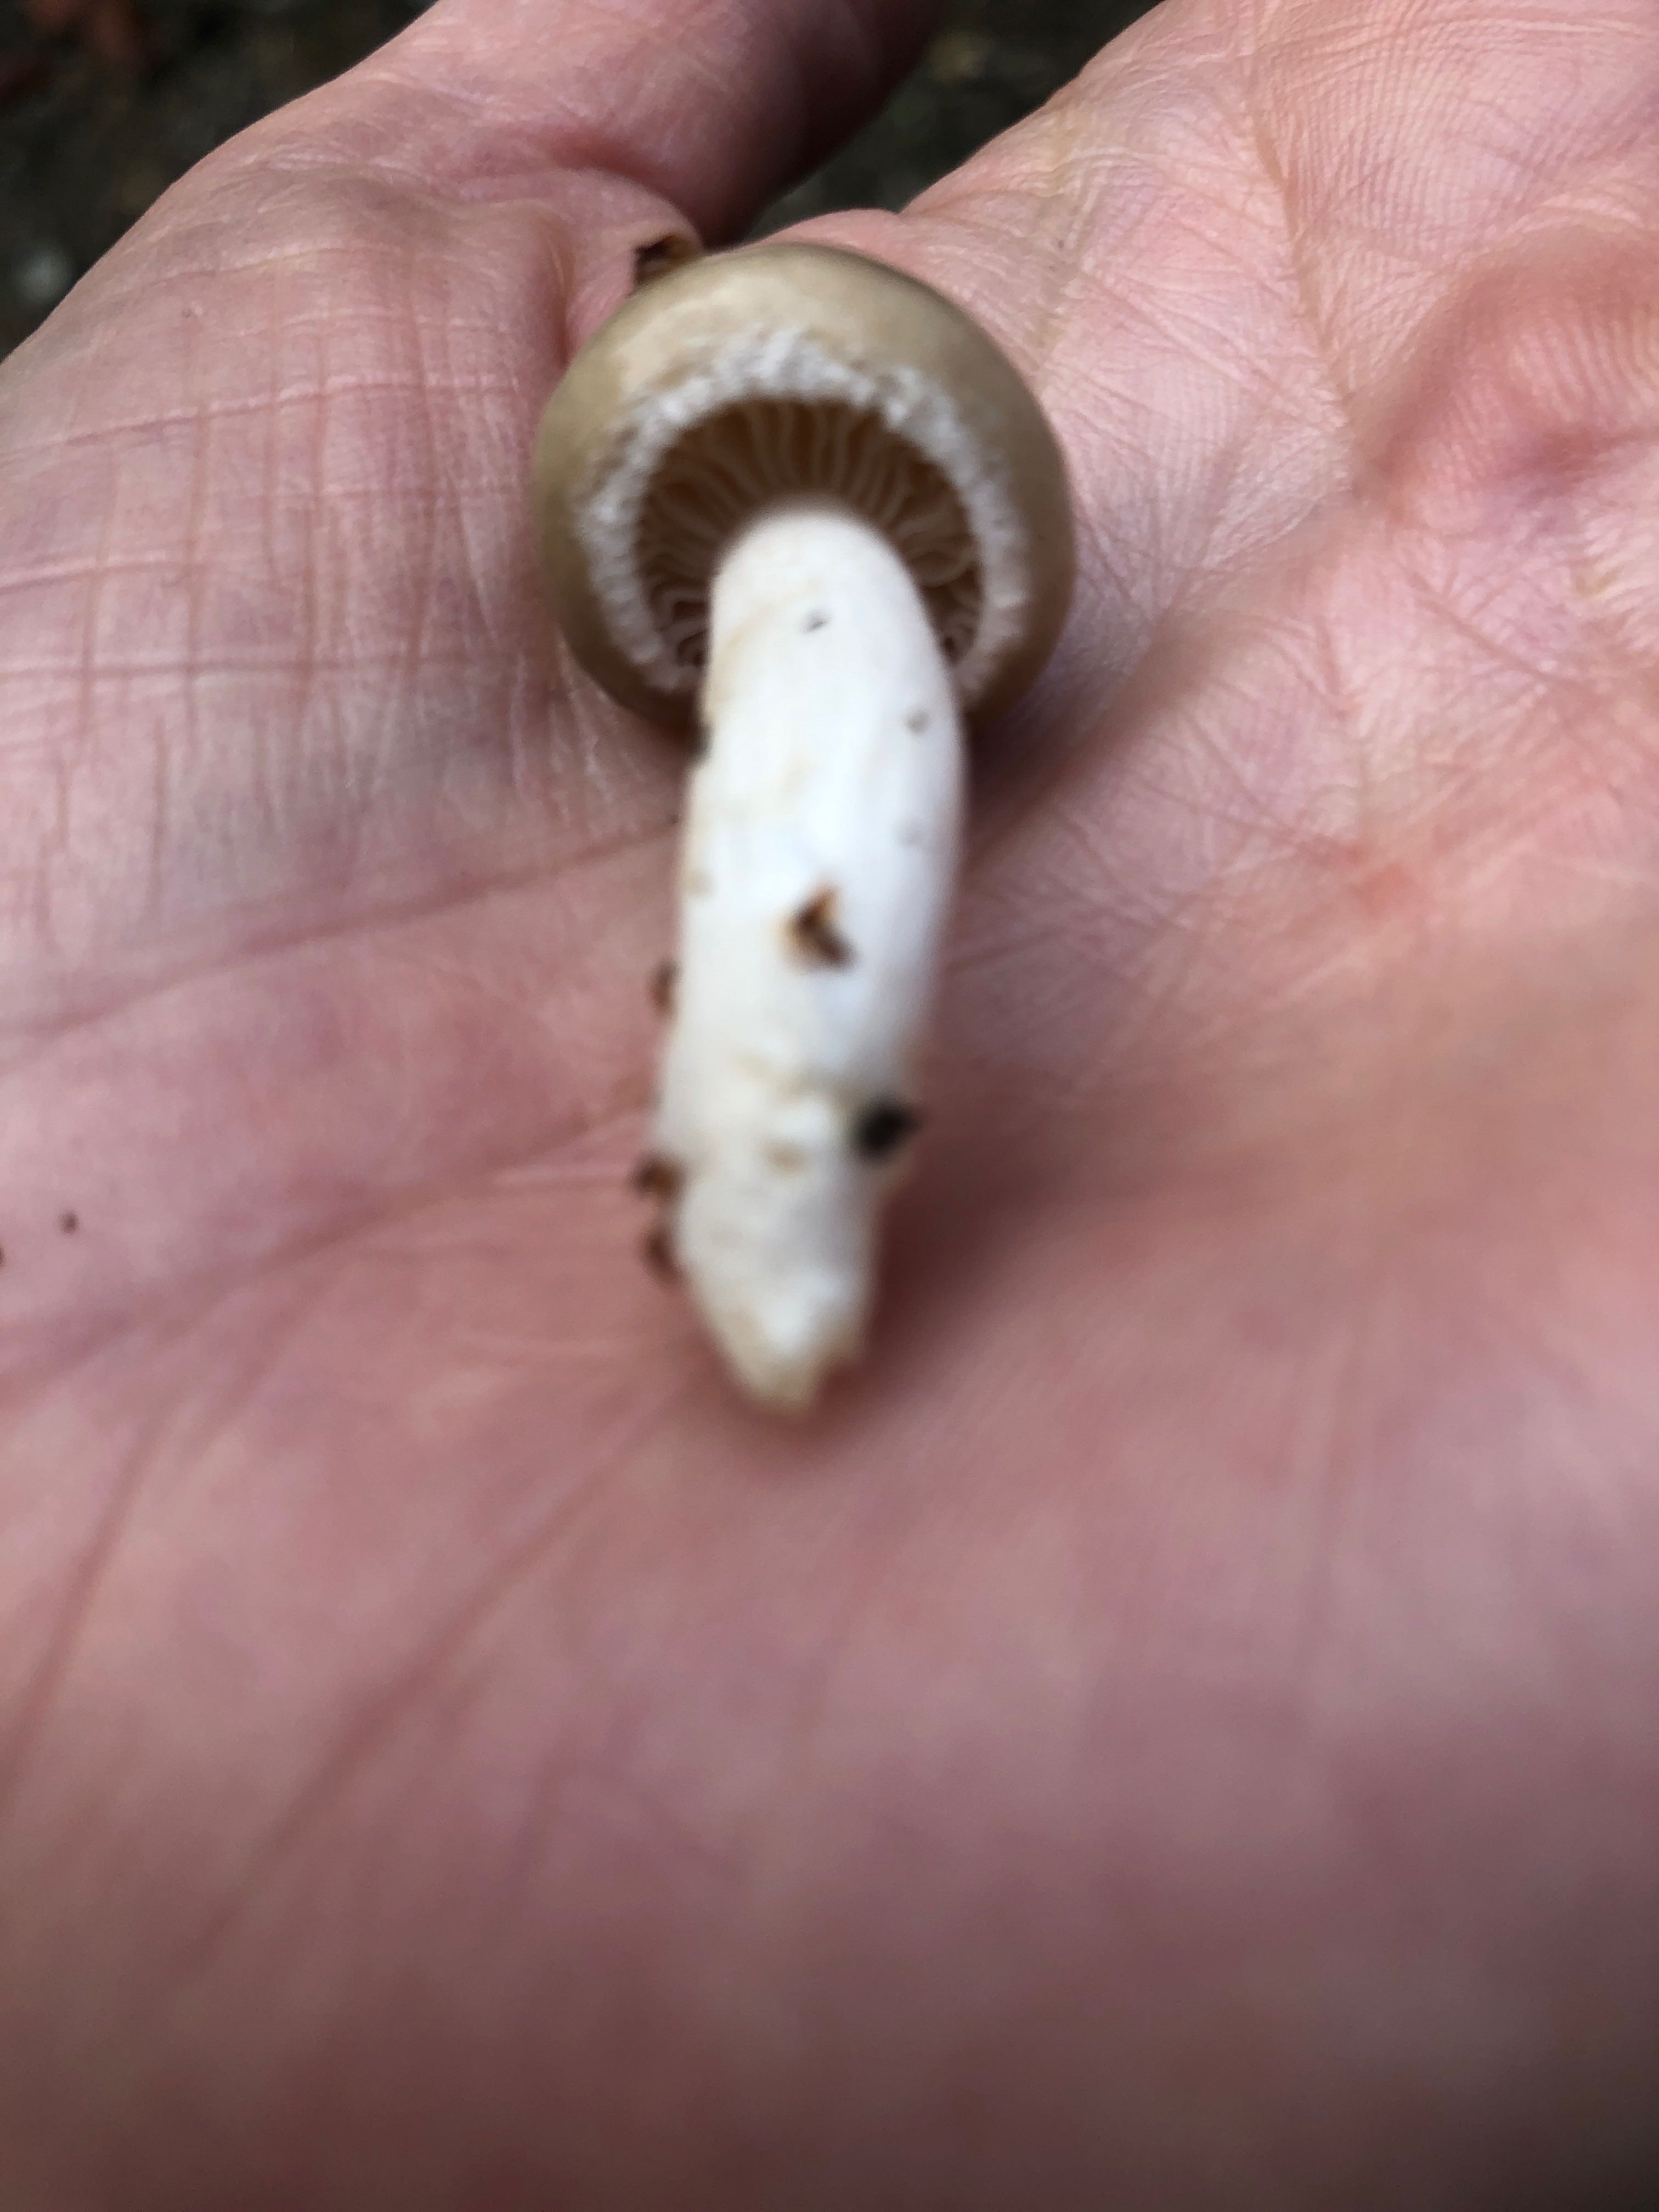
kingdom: Fungi
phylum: Basidiomycota
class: Agaricomycetes
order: Agaricales
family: Hygrophoraceae
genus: Hygrophorus
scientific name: Hygrophorus agathosmus
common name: vellugtende sneglehat
